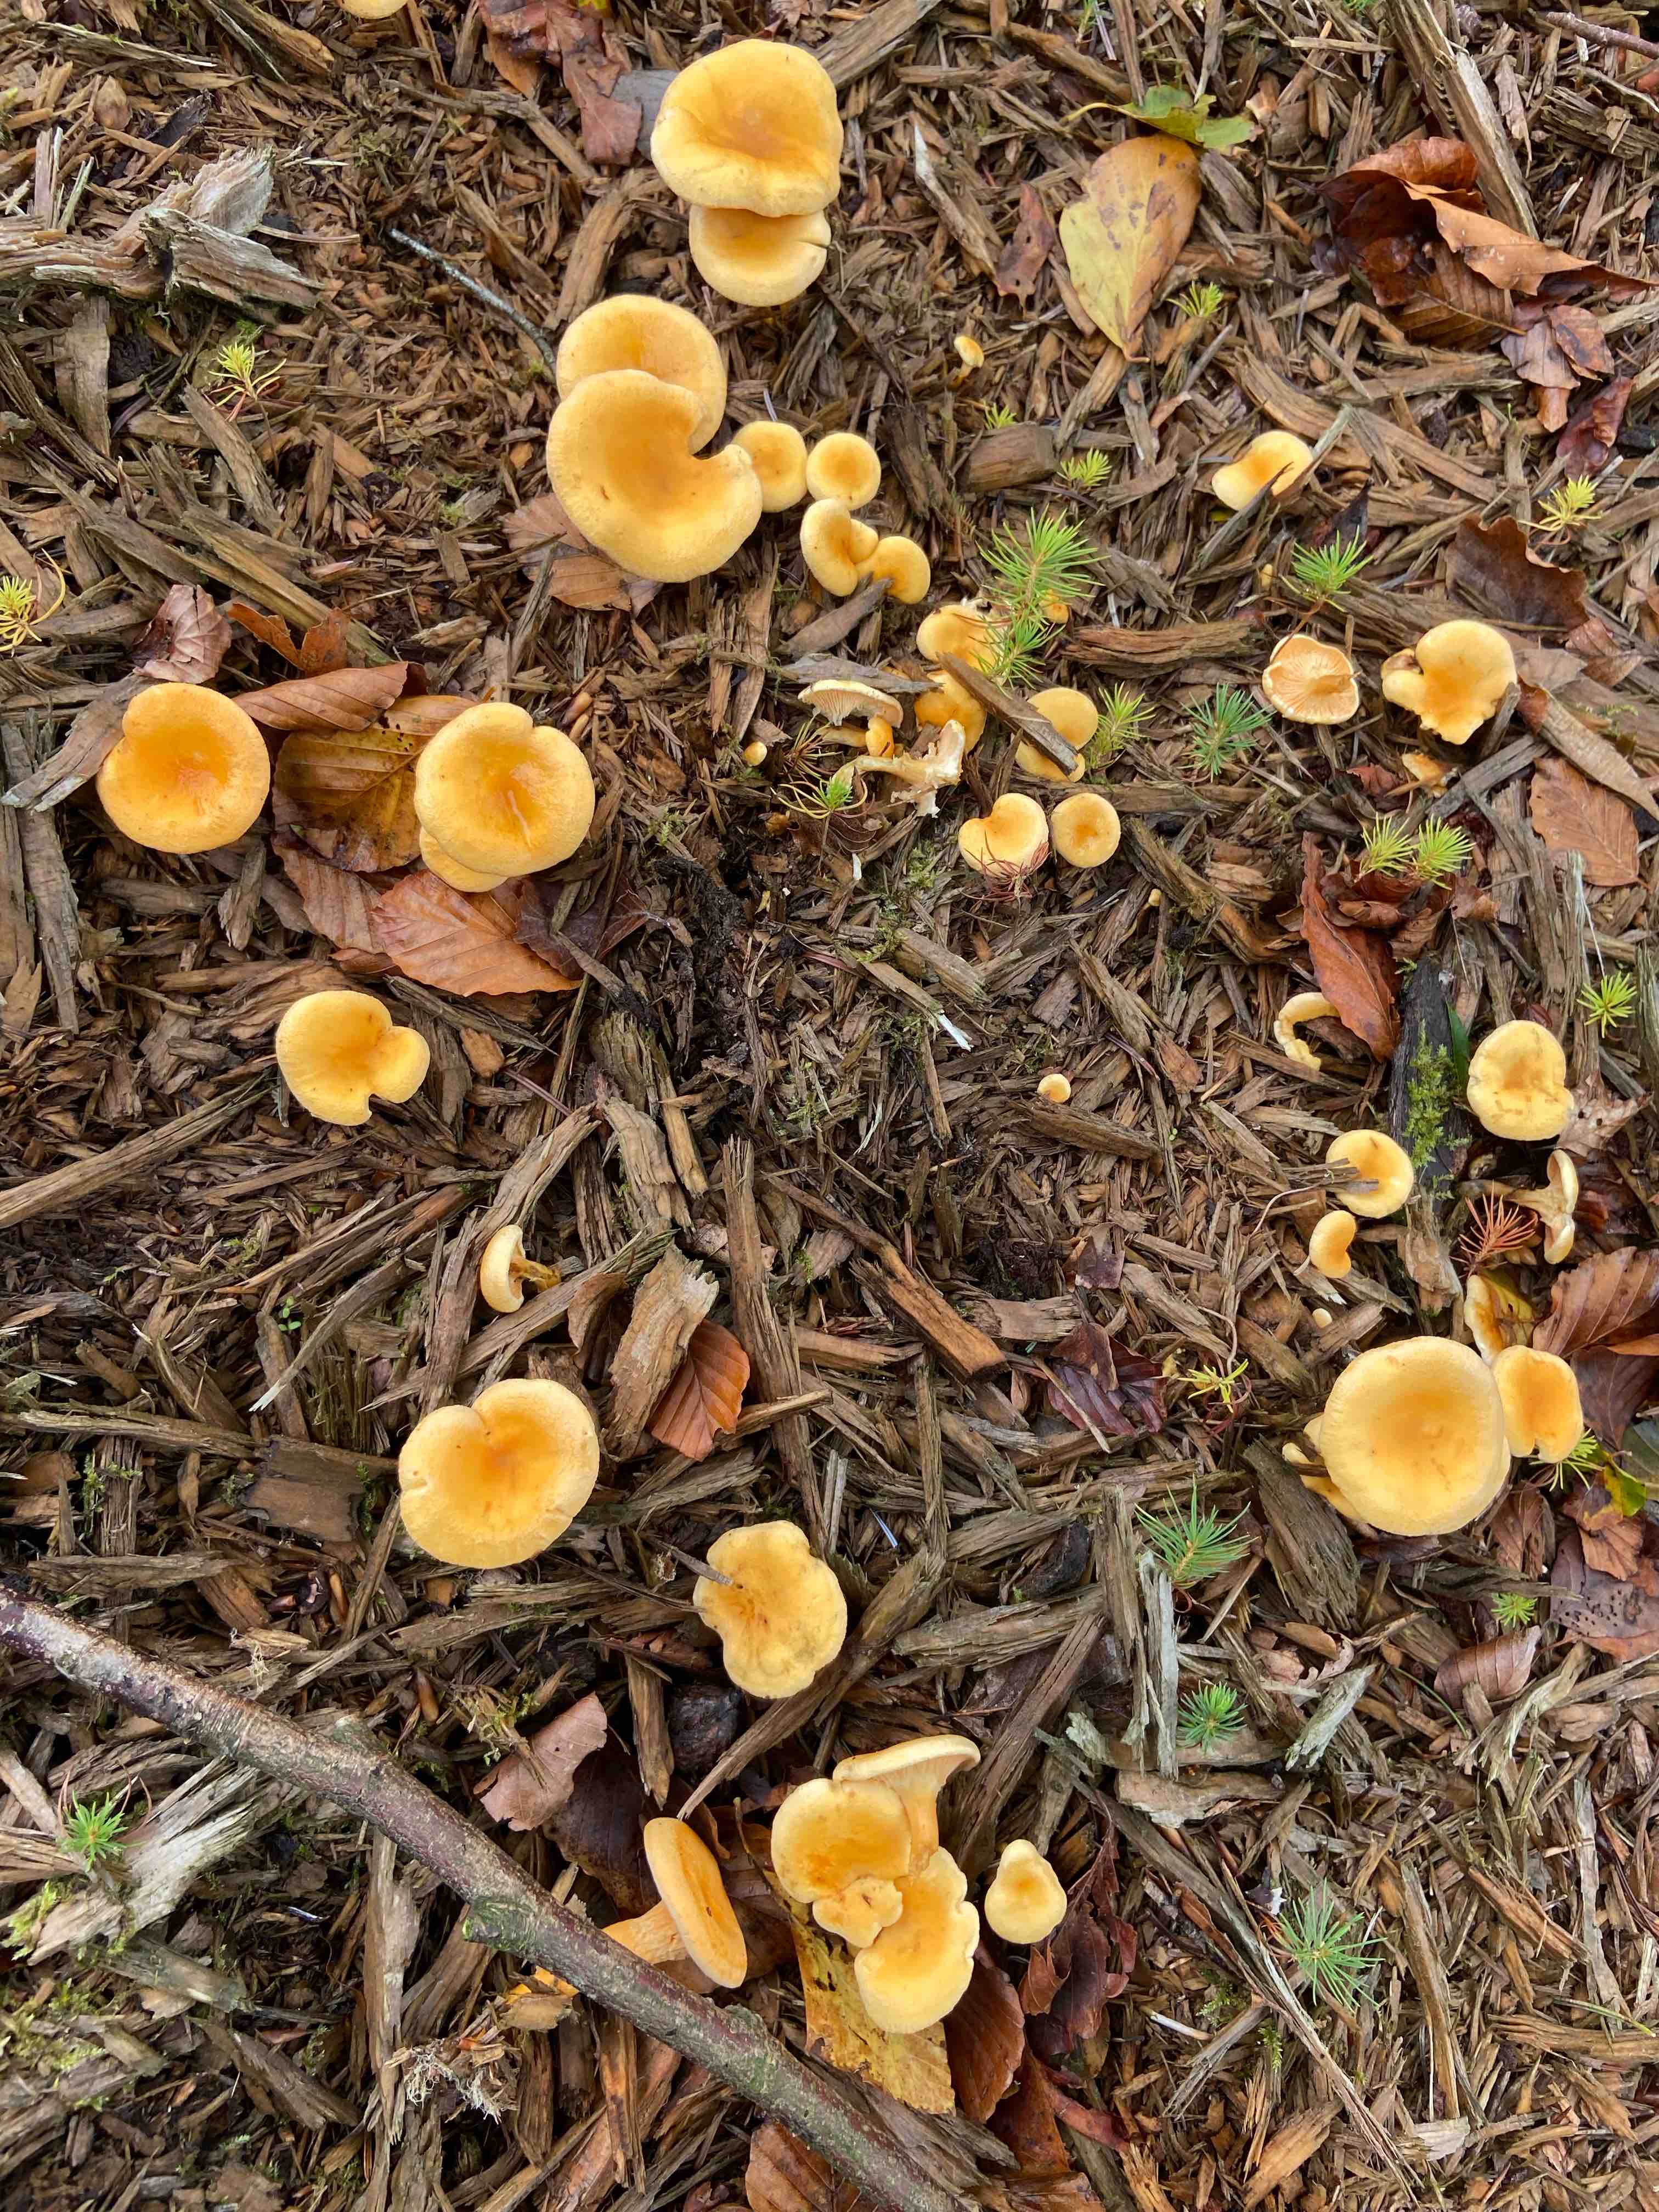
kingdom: Fungi
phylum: Basidiomycota
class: Agaricomycetes
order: Boletales
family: Hygrophoropsidaceae
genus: Hygrophoropsis
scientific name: Hygrophoropsis aurantiaca
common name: almindelig orangekantarel
